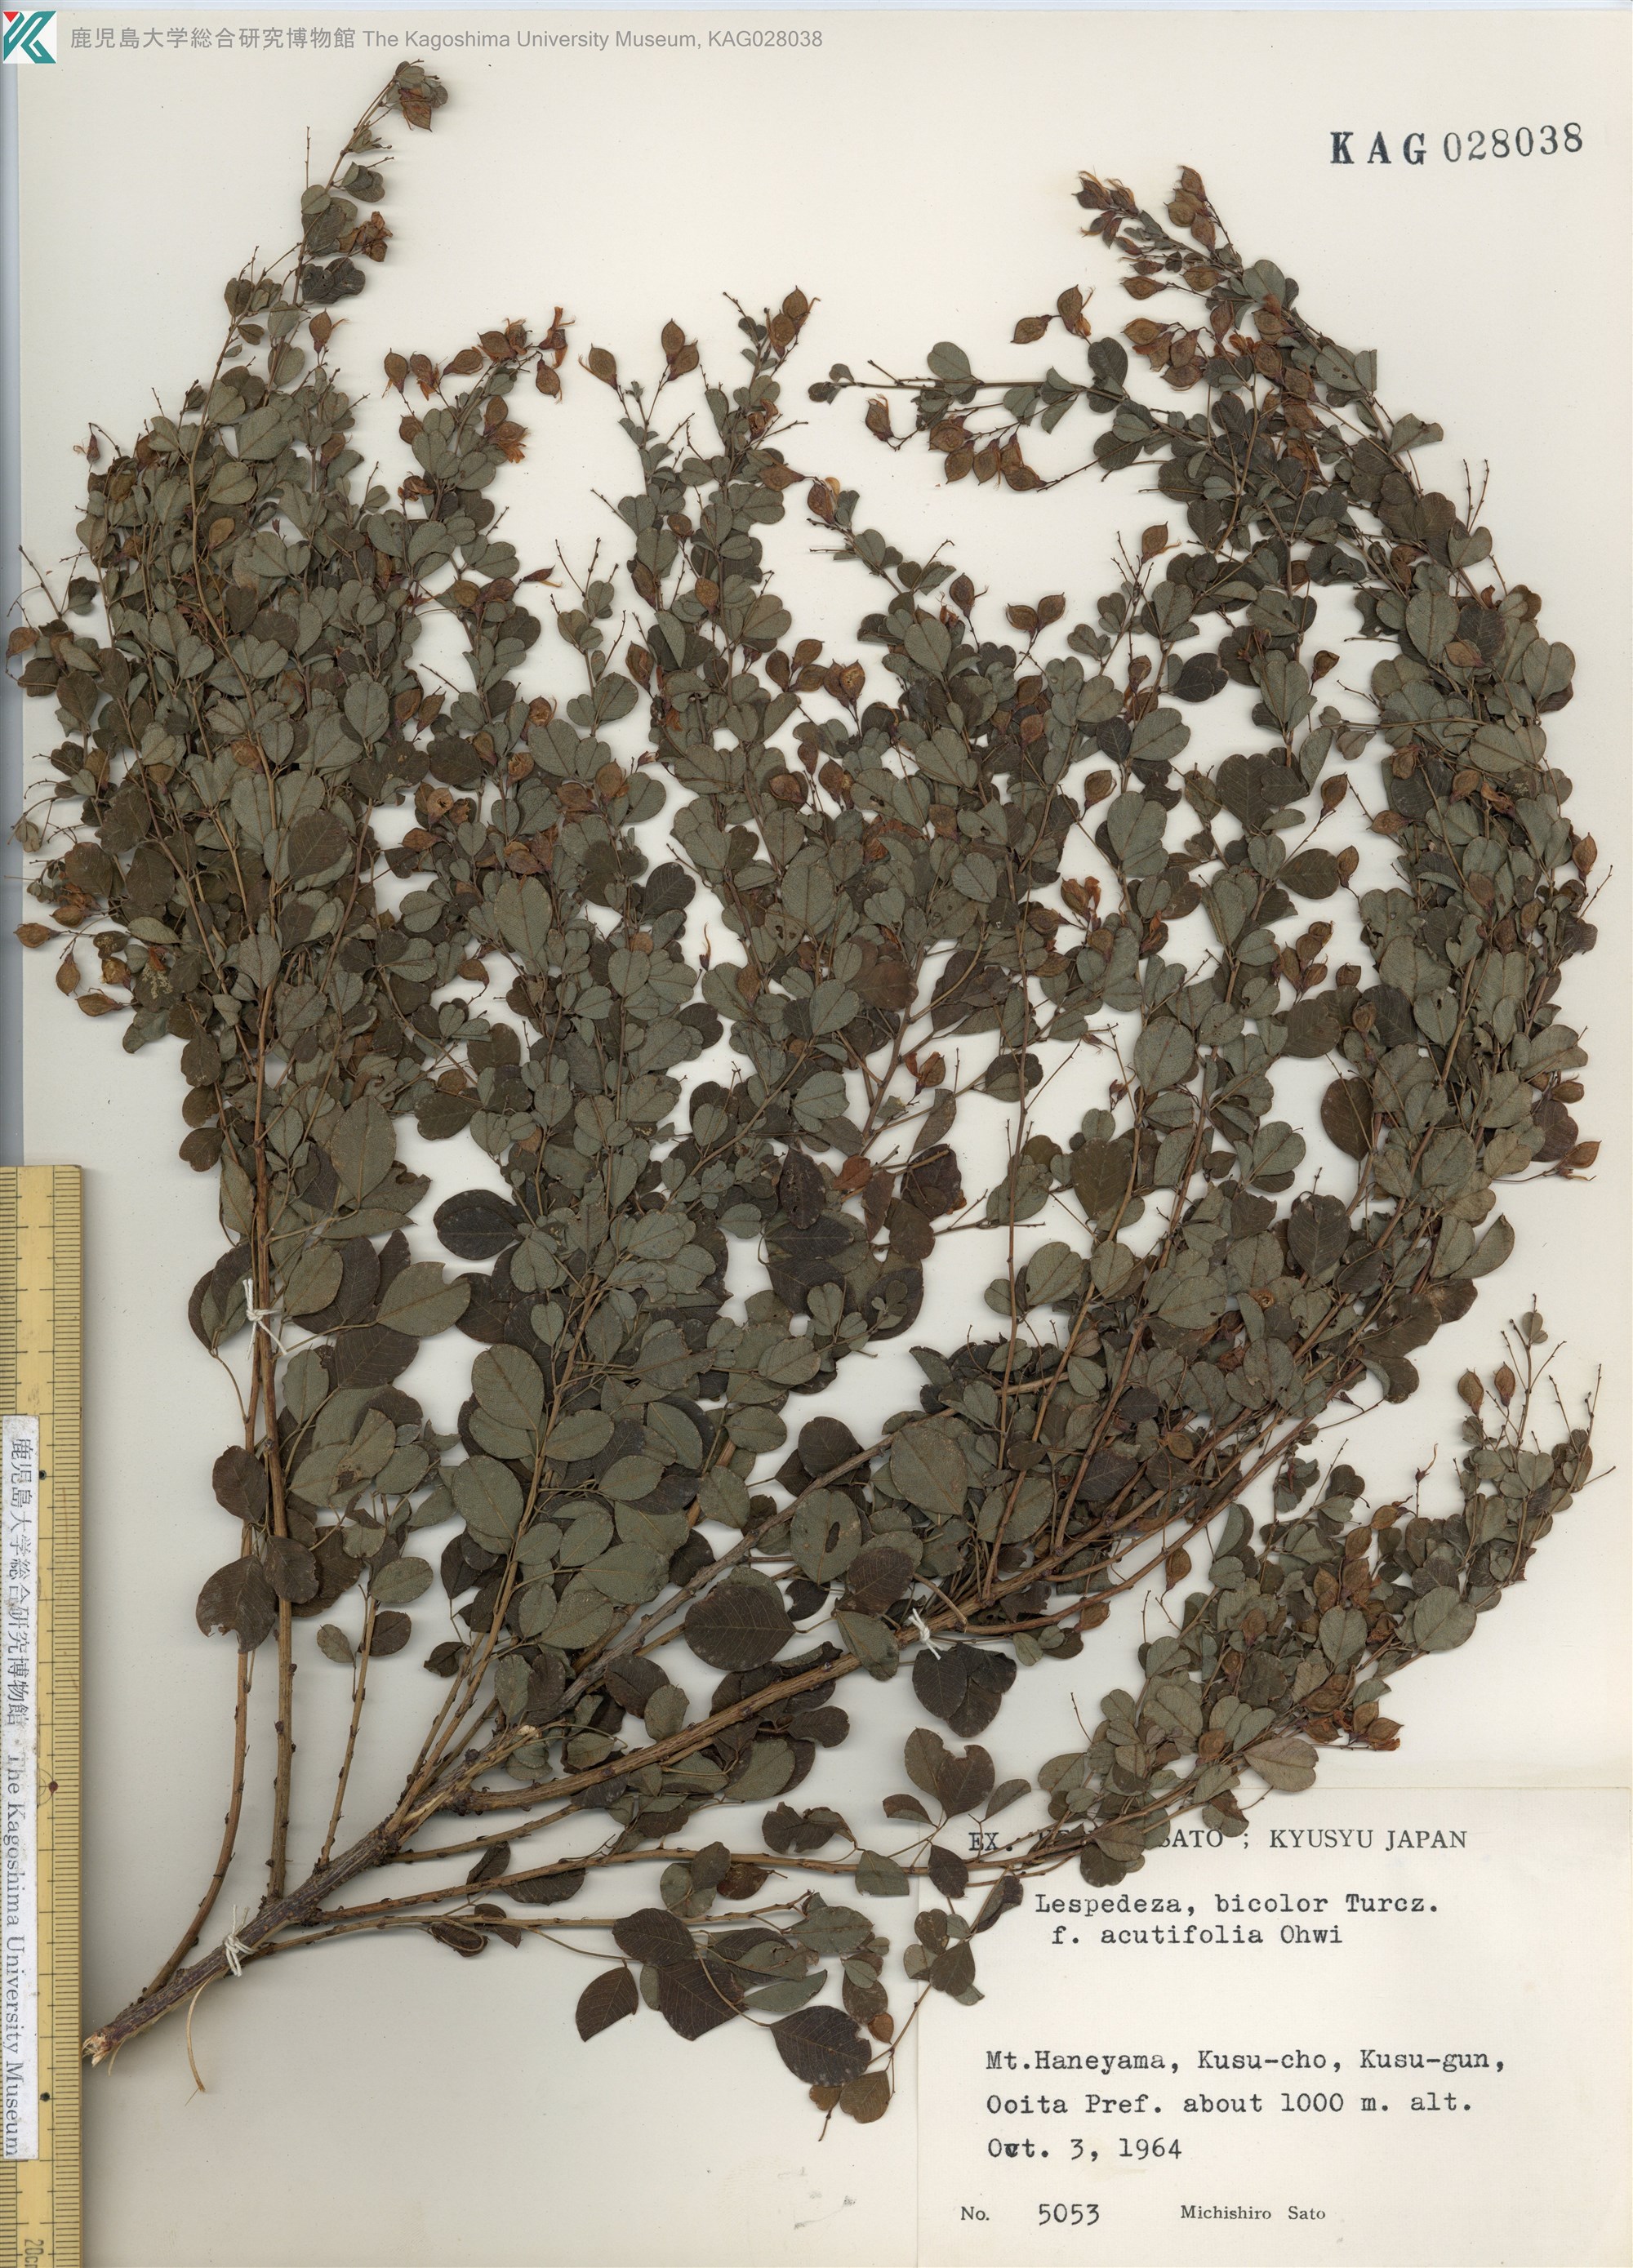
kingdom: Plantae
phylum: Tracheophyta
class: Magnoliopsida
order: Fabales
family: Fabaceae
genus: Lespedeza
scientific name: Lespedeza bicolor
